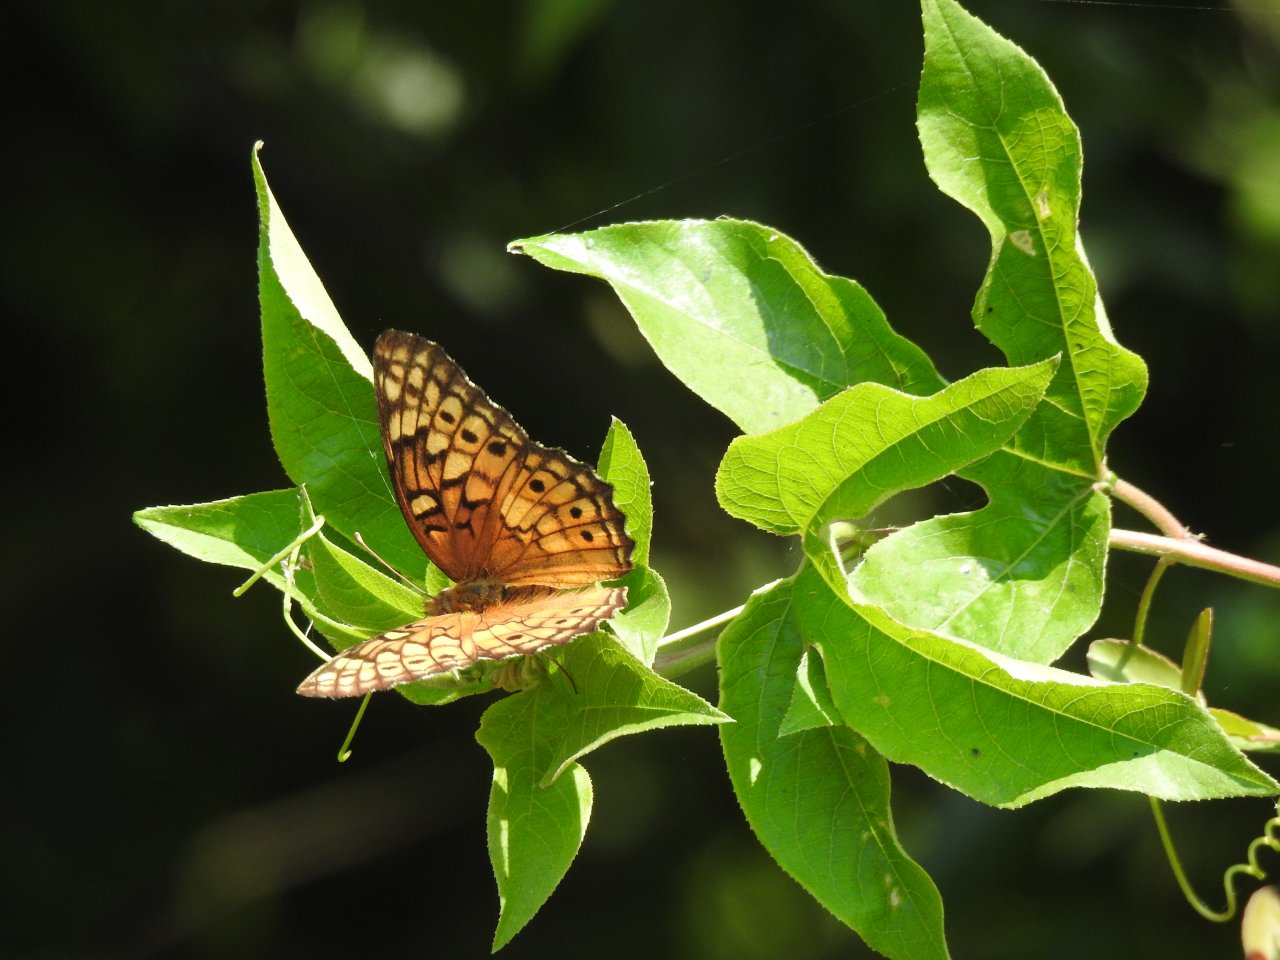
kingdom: Animalia
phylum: Arthropoda
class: Insecta
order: Lepidoptera
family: Nymphalidae
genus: Euptoieta
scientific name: Euptoieta claudia
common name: Variegated Fritillary
